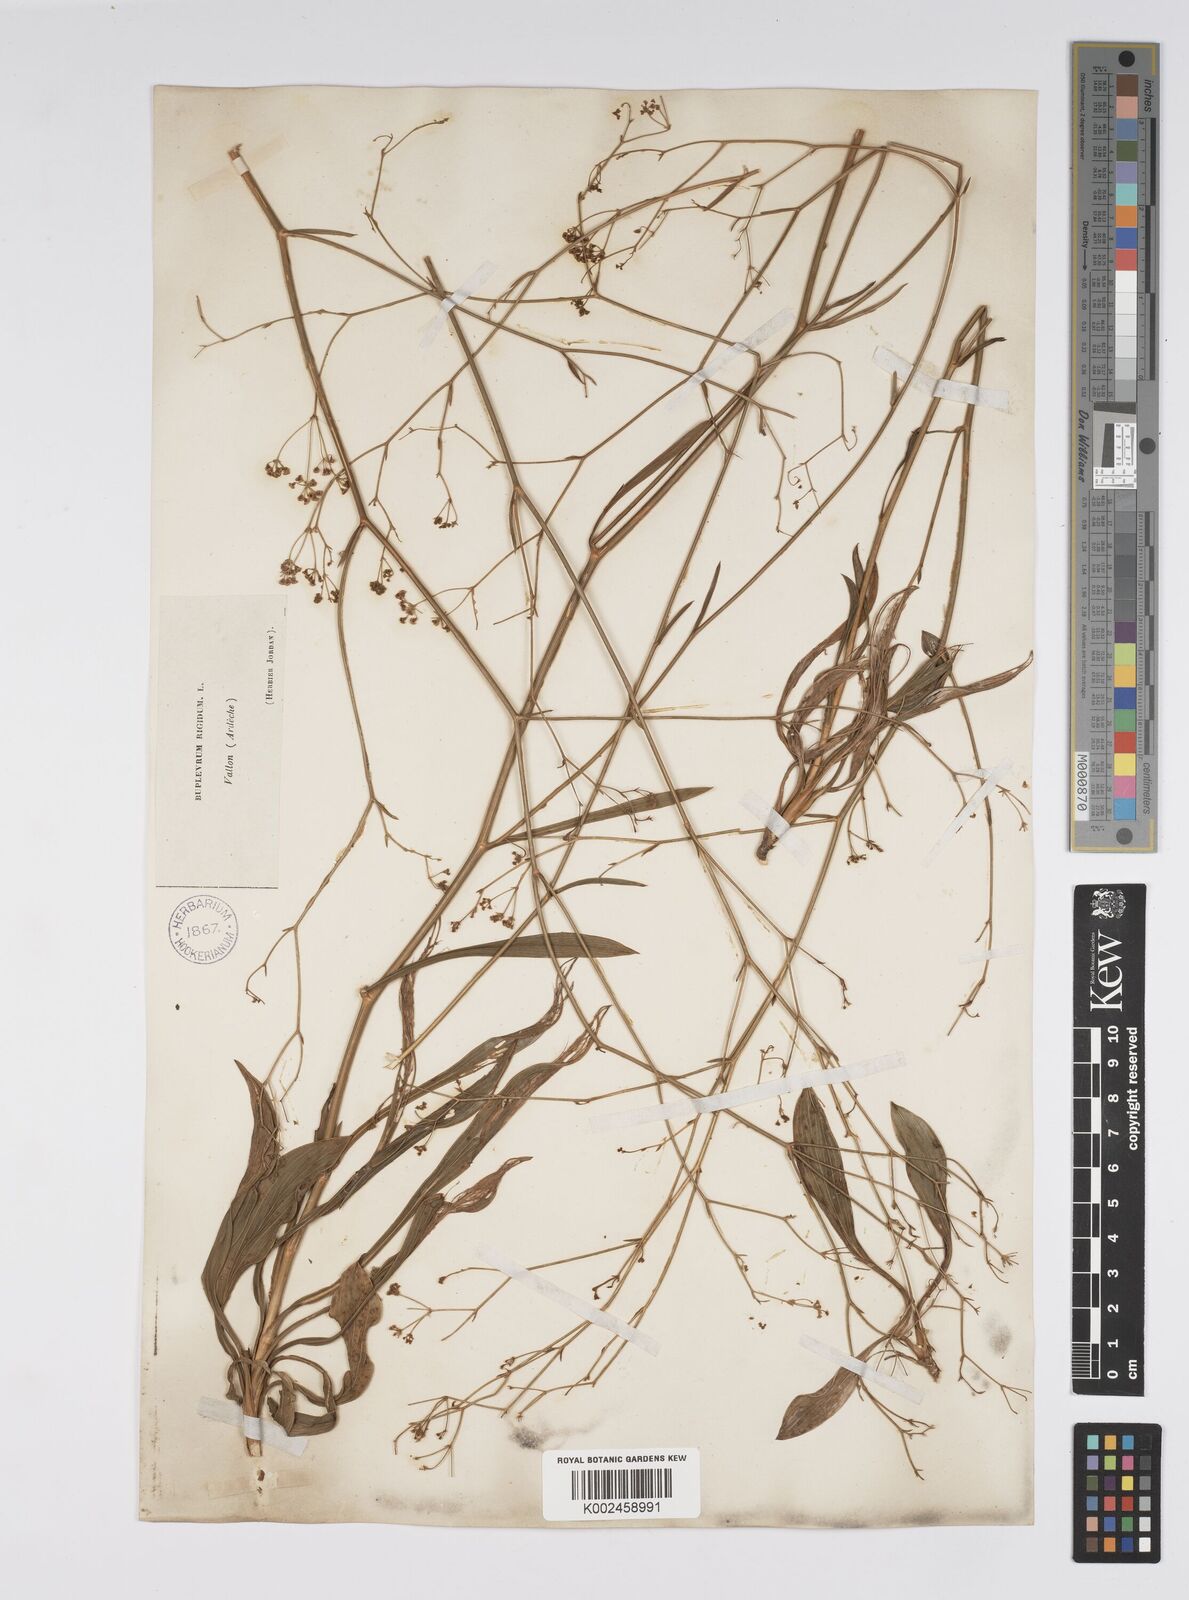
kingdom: Plantae
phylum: Tracheophyta
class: Magnoliopsida
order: Apiales
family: Apiaceae
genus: Bupleurum
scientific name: Bupleurum rigidum
